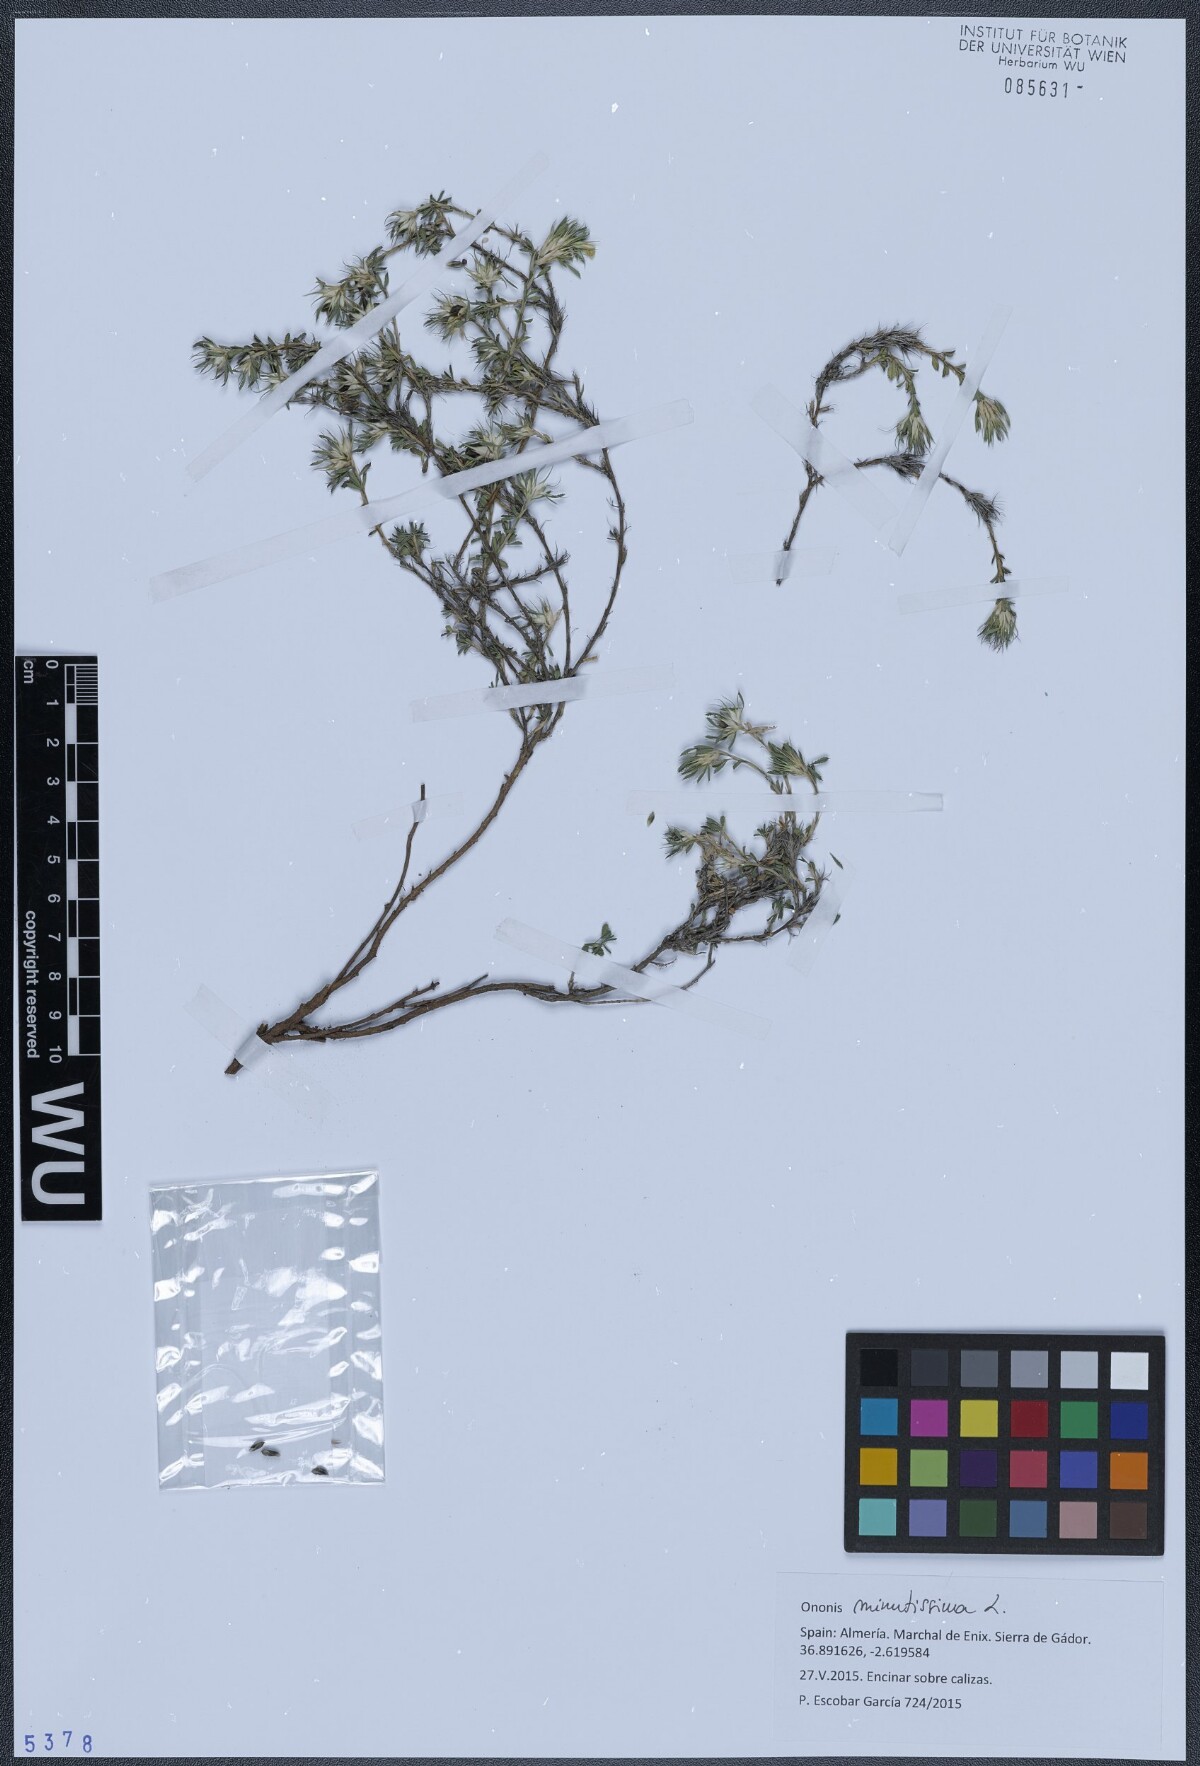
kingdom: Plantae
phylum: Tracheophyta
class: Magnoliopsida
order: Fabales
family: Fabaceae
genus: Ononis
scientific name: Ononis minutissima
